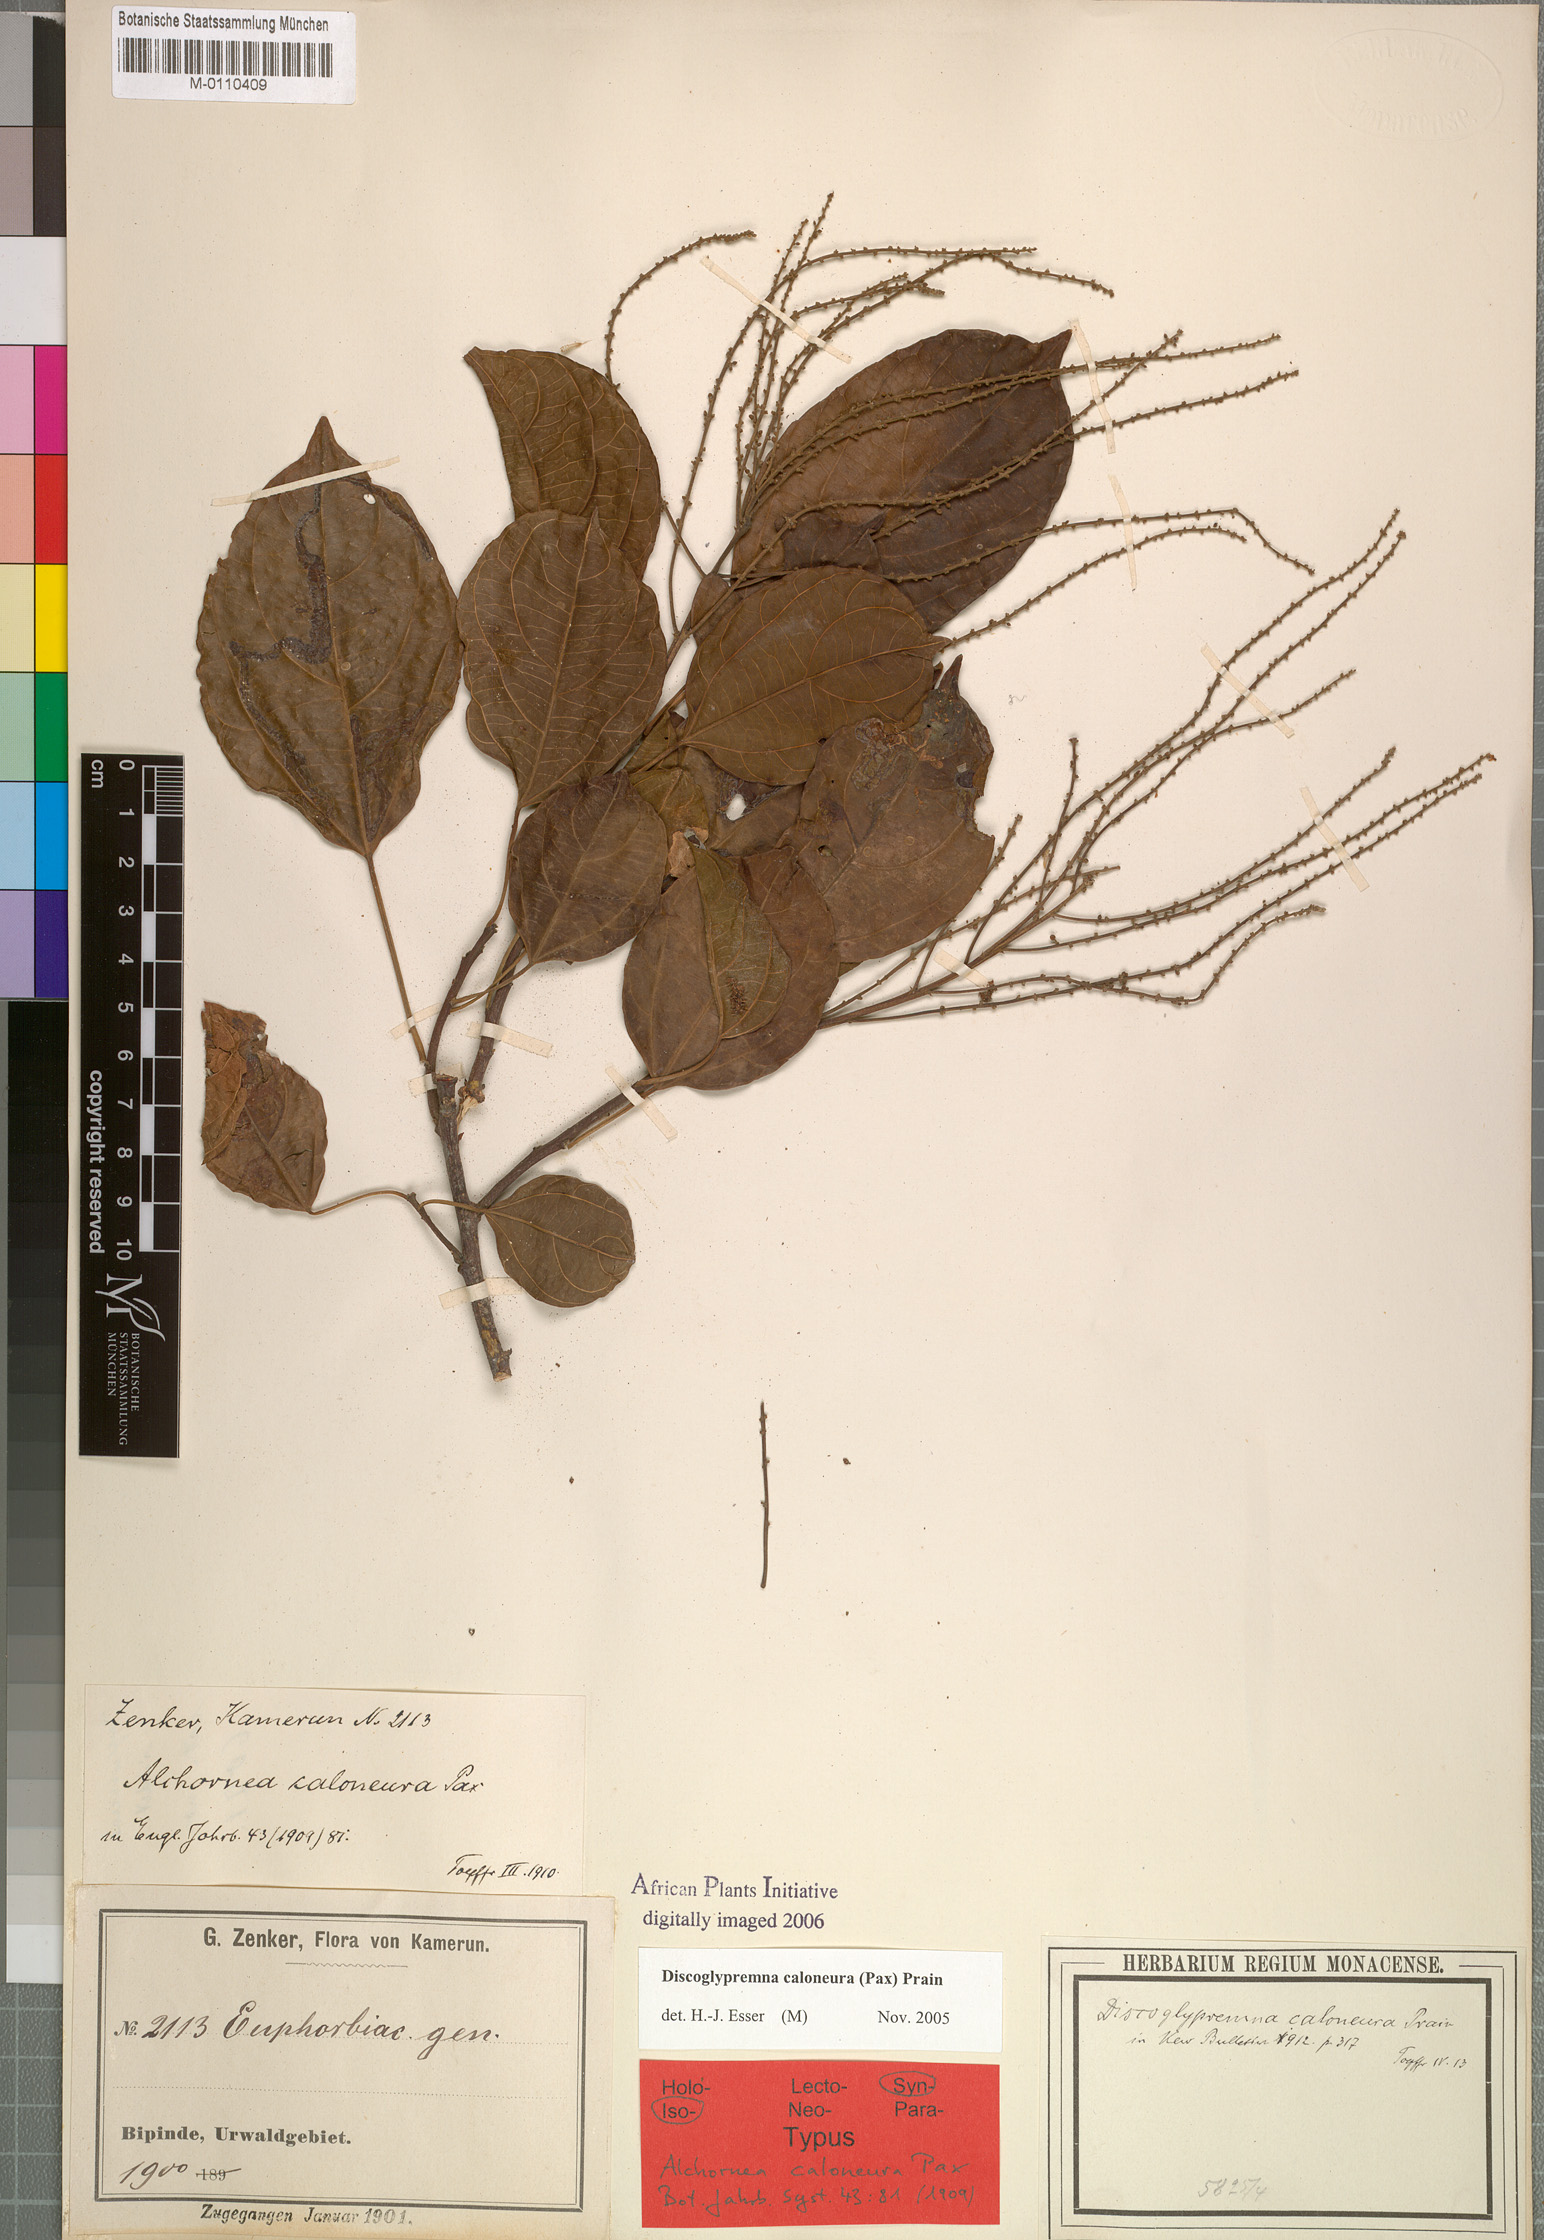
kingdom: Plantae
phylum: Tracheophyta
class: Magnoliopsida
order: Malpighiales
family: Euphorbiaceae
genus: Discoglypremna
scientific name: Discoglypremna caloneura
